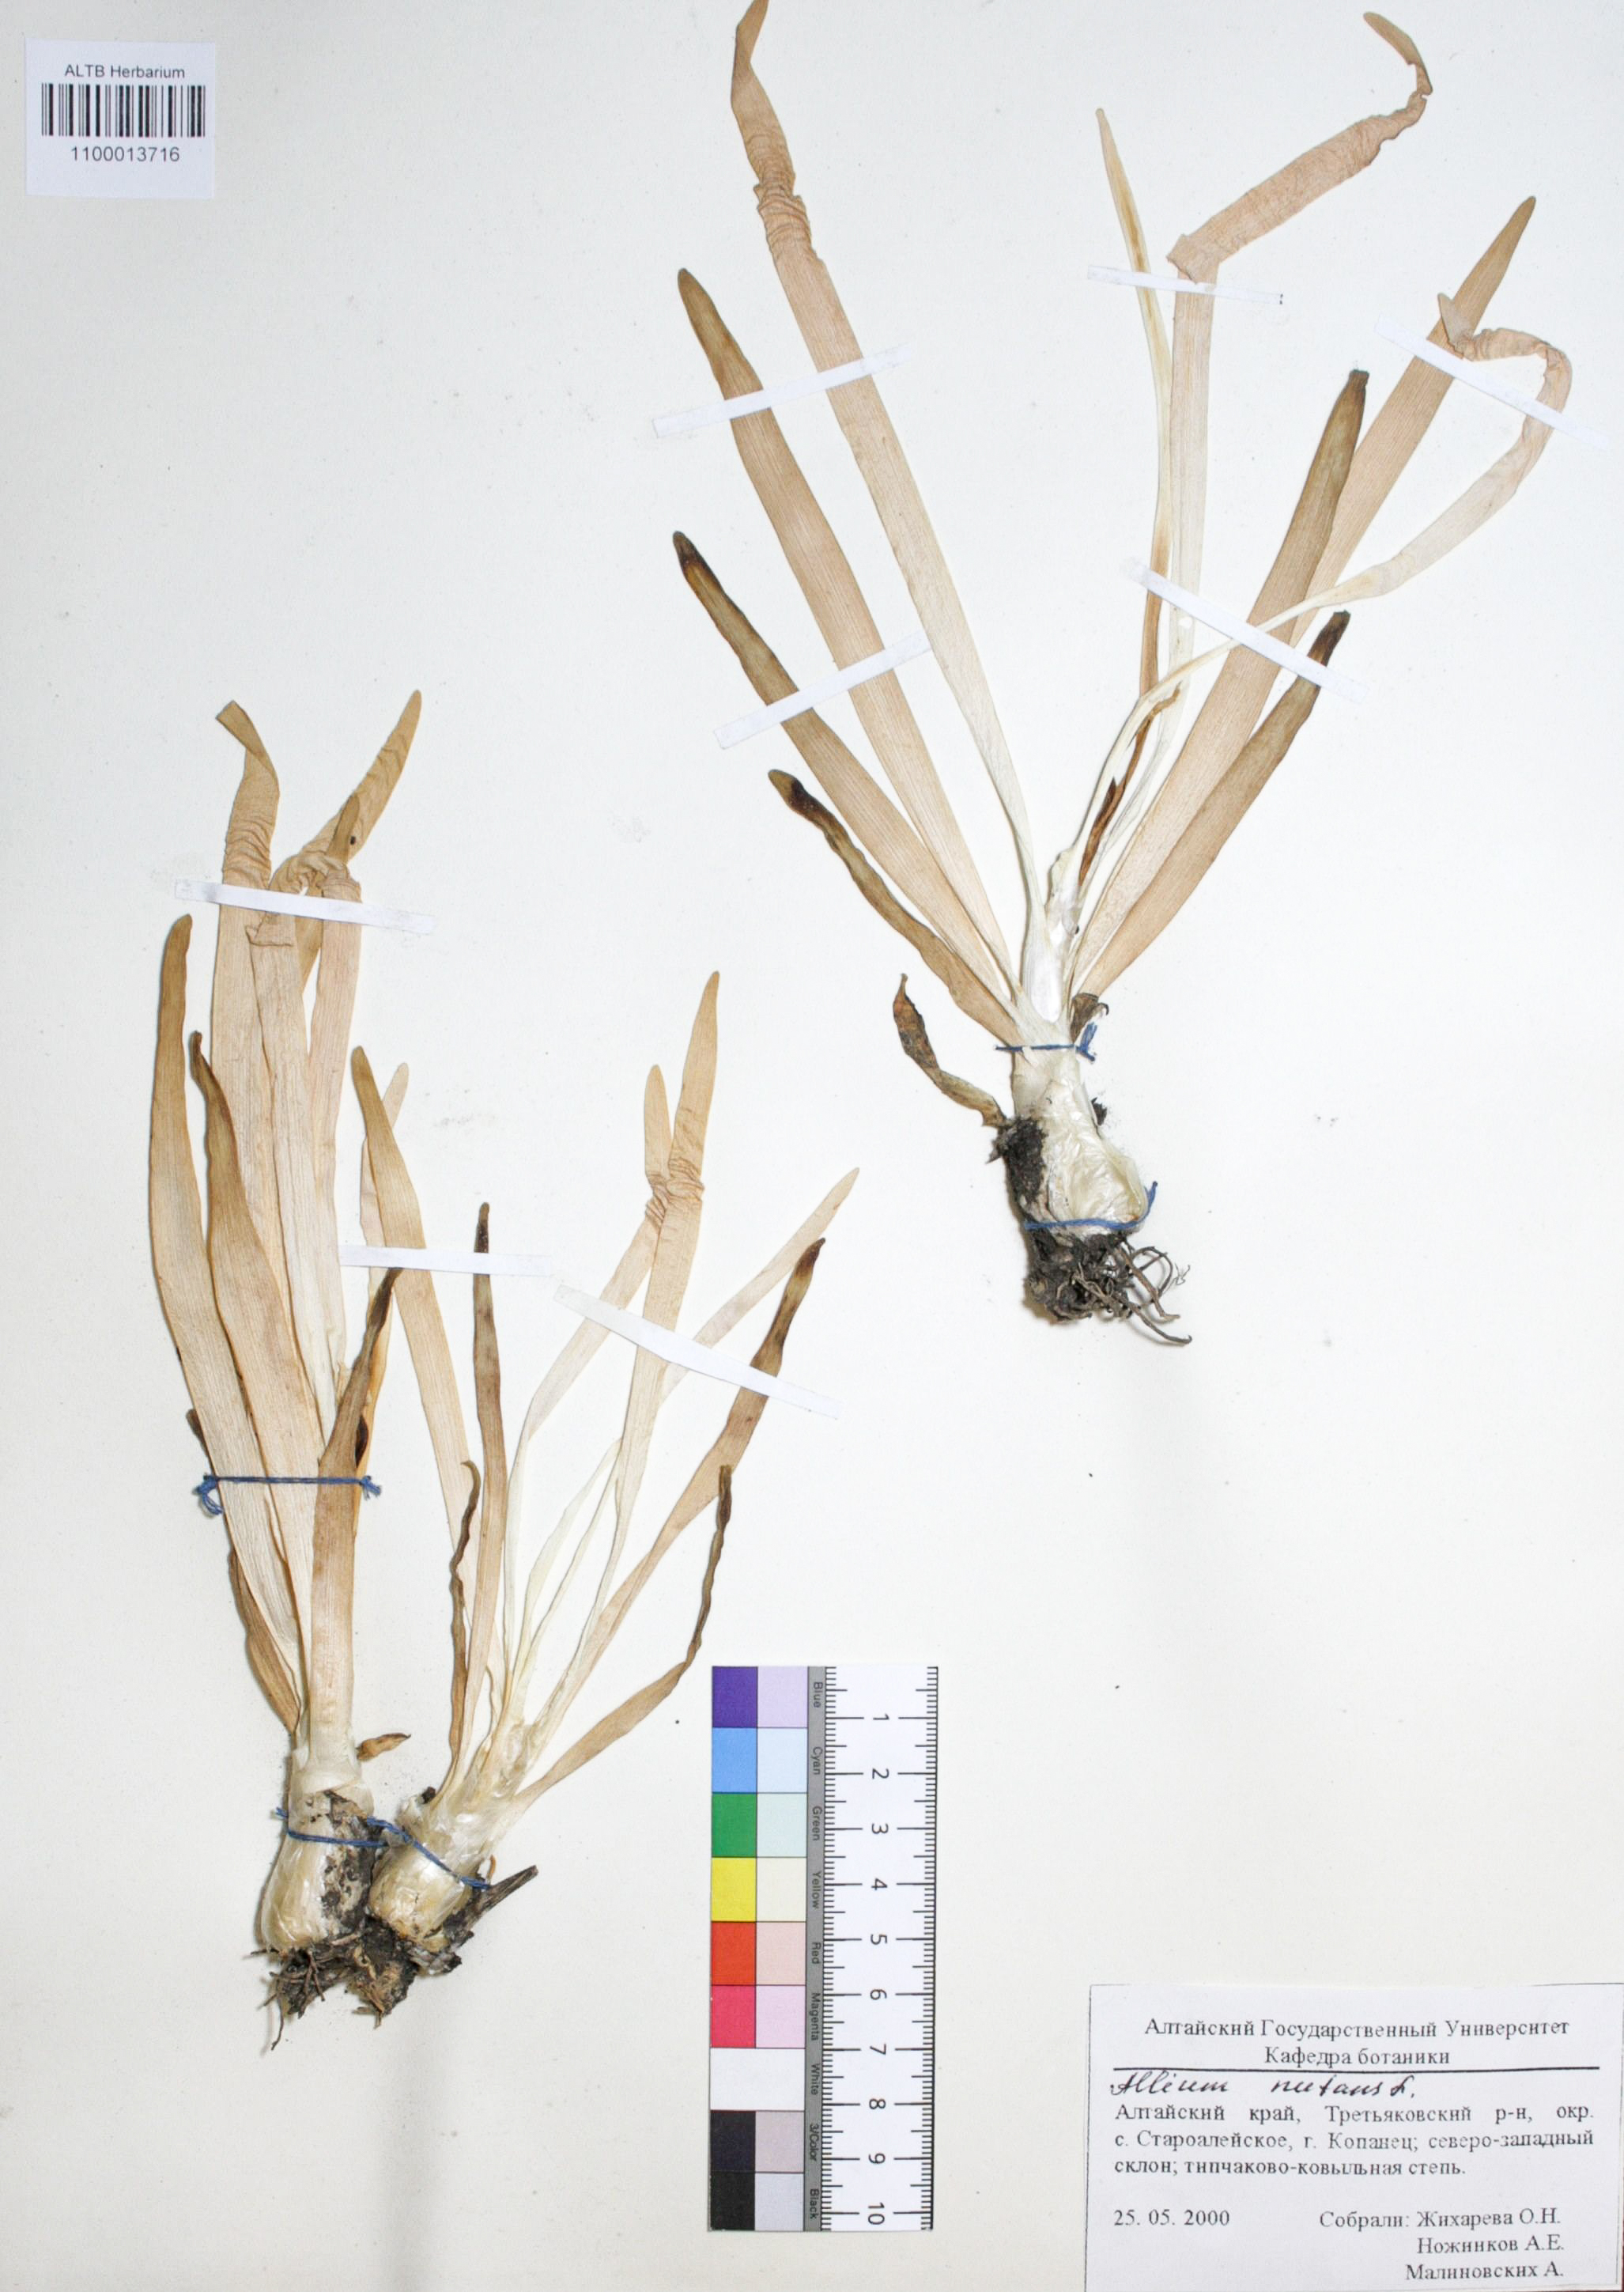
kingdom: Plantae
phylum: Tracheophyta
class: Liliopsida
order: Asparagales
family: Amaryllidaceae
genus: Allium
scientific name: Allium nutans
